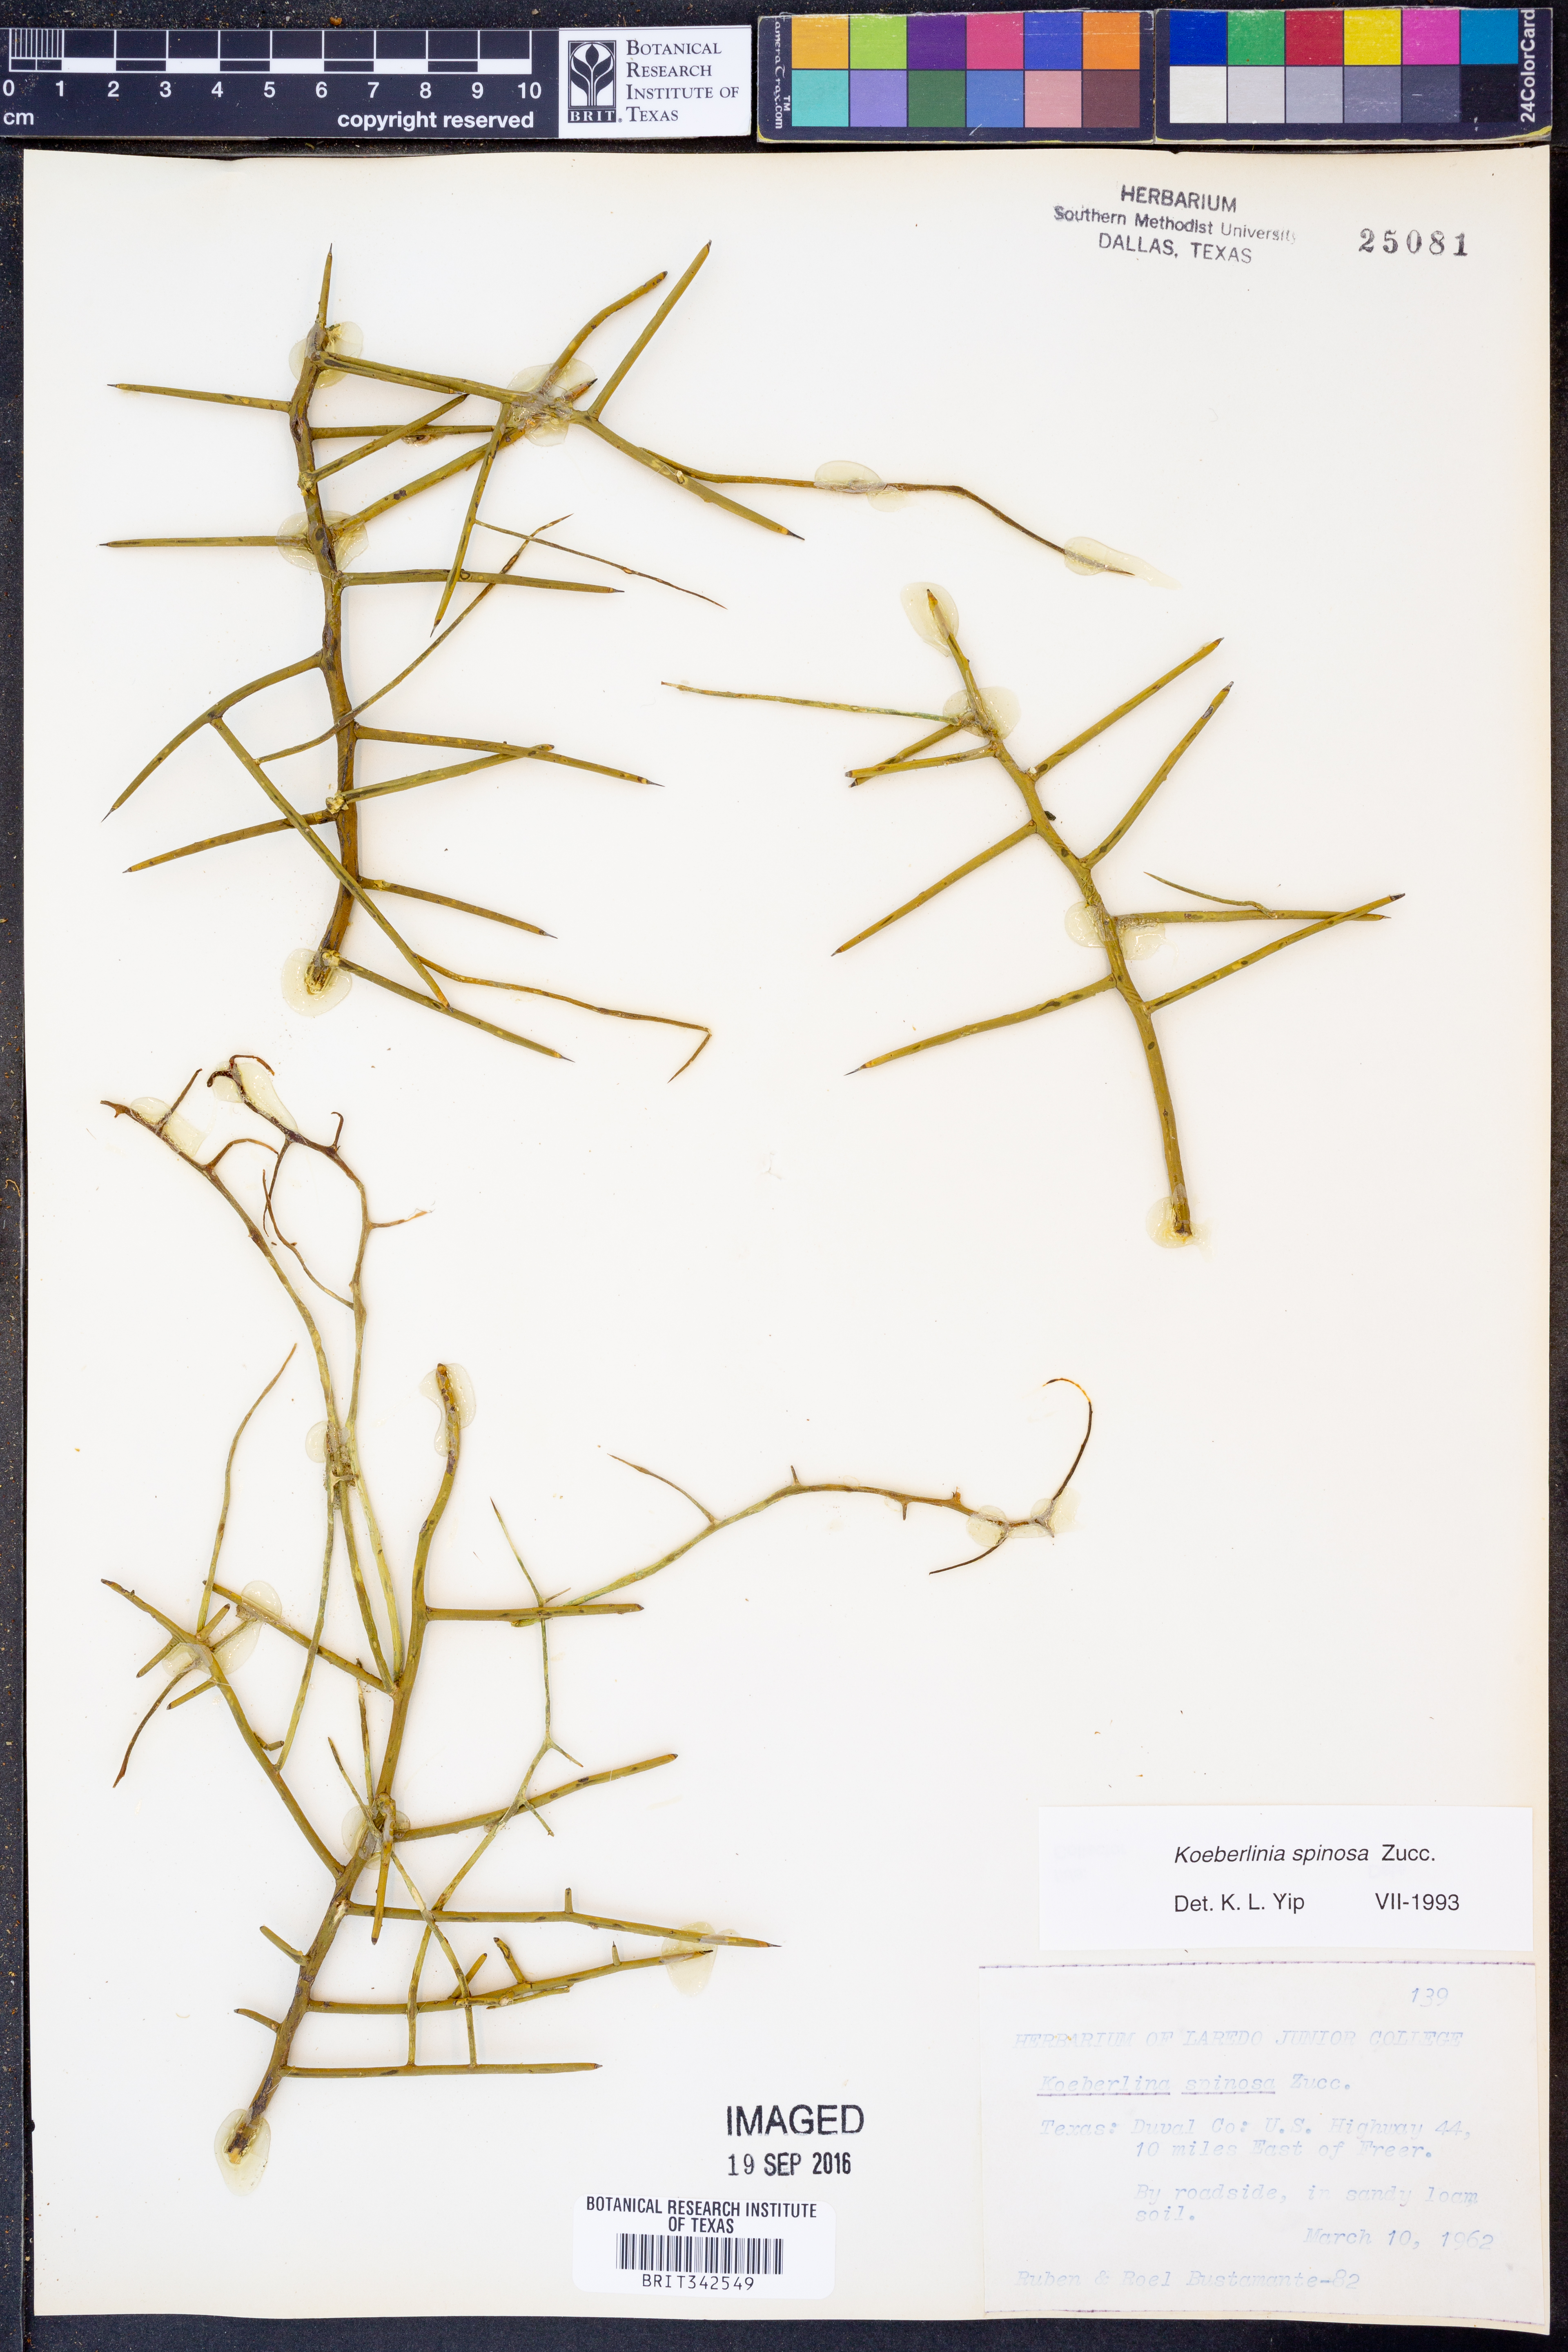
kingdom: Plantae
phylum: Tracheophyta
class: Magnoliopsida
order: Brassicales
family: Koeberliniaceae
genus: Koeberlinia
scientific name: Koeberlinia spinosa
